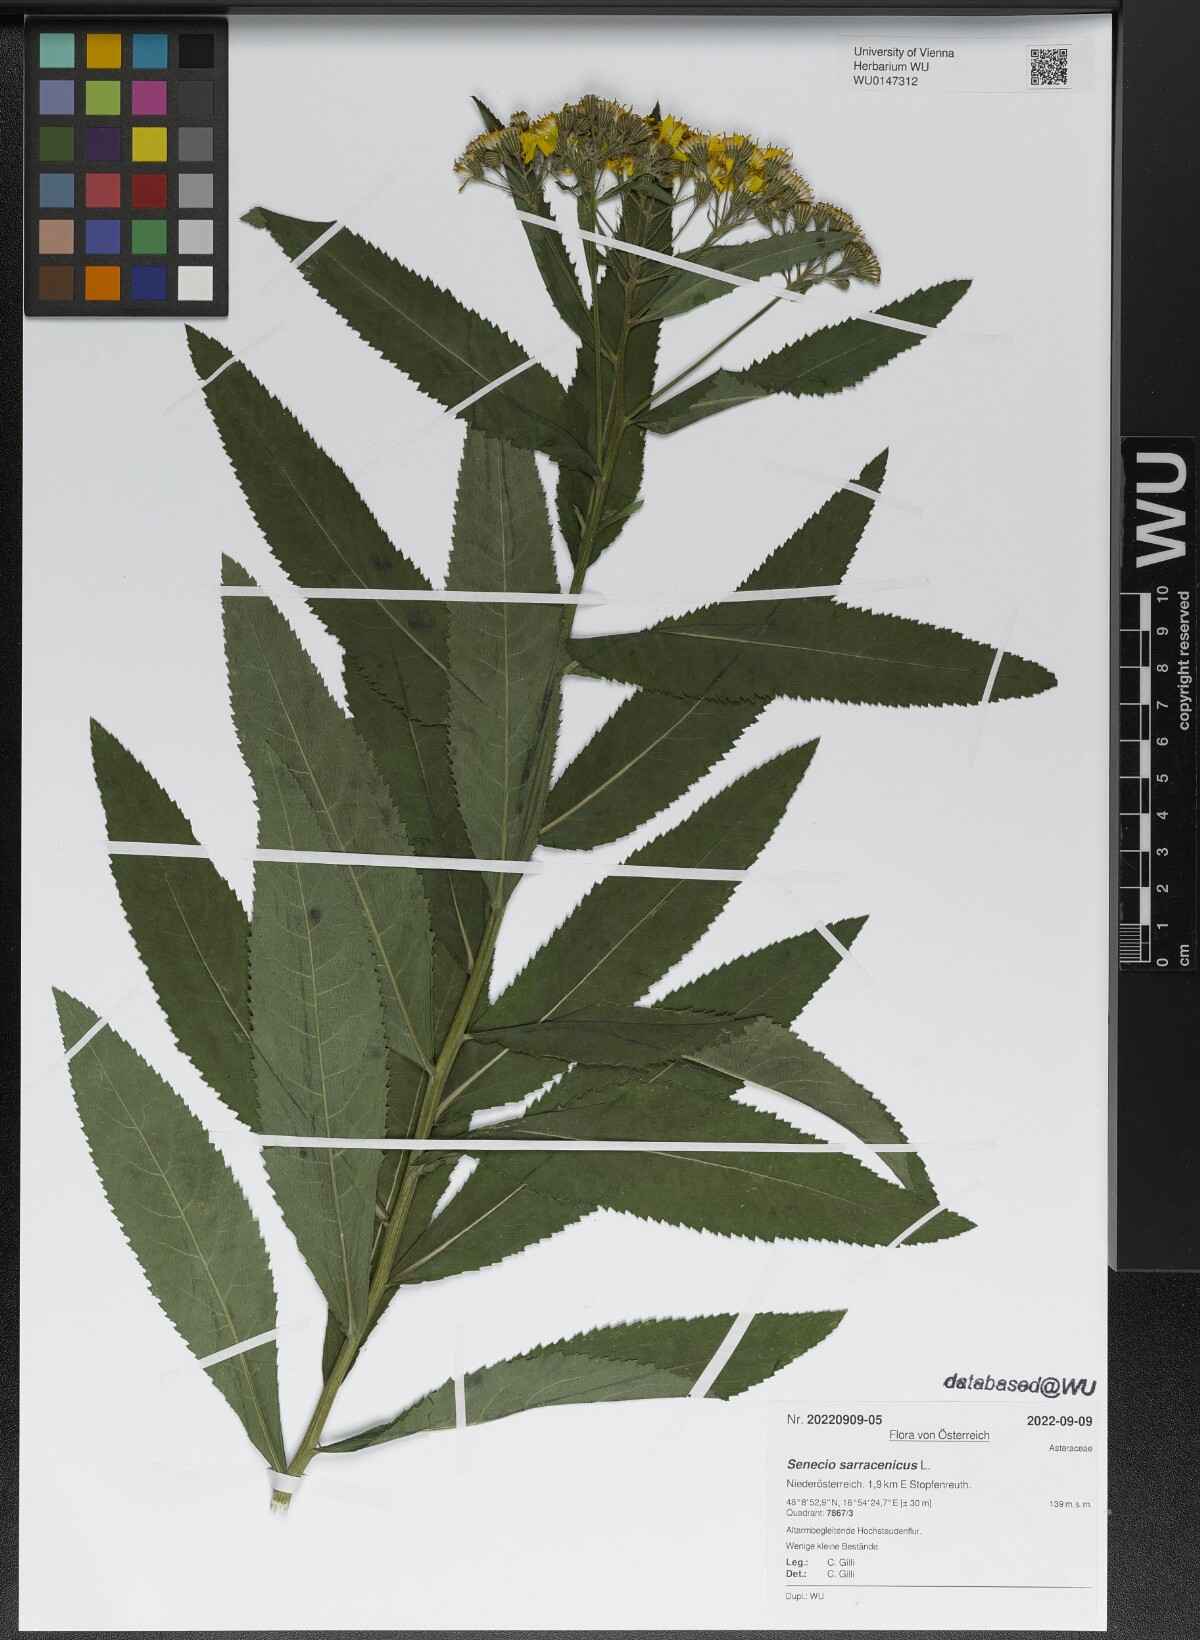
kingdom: Plantae
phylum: Tracheophyta
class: Magnoliopsida
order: Asterales
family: Asteraceae
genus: Senecio
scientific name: Senecio sarracenicus
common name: Broad-leaved ragwort
